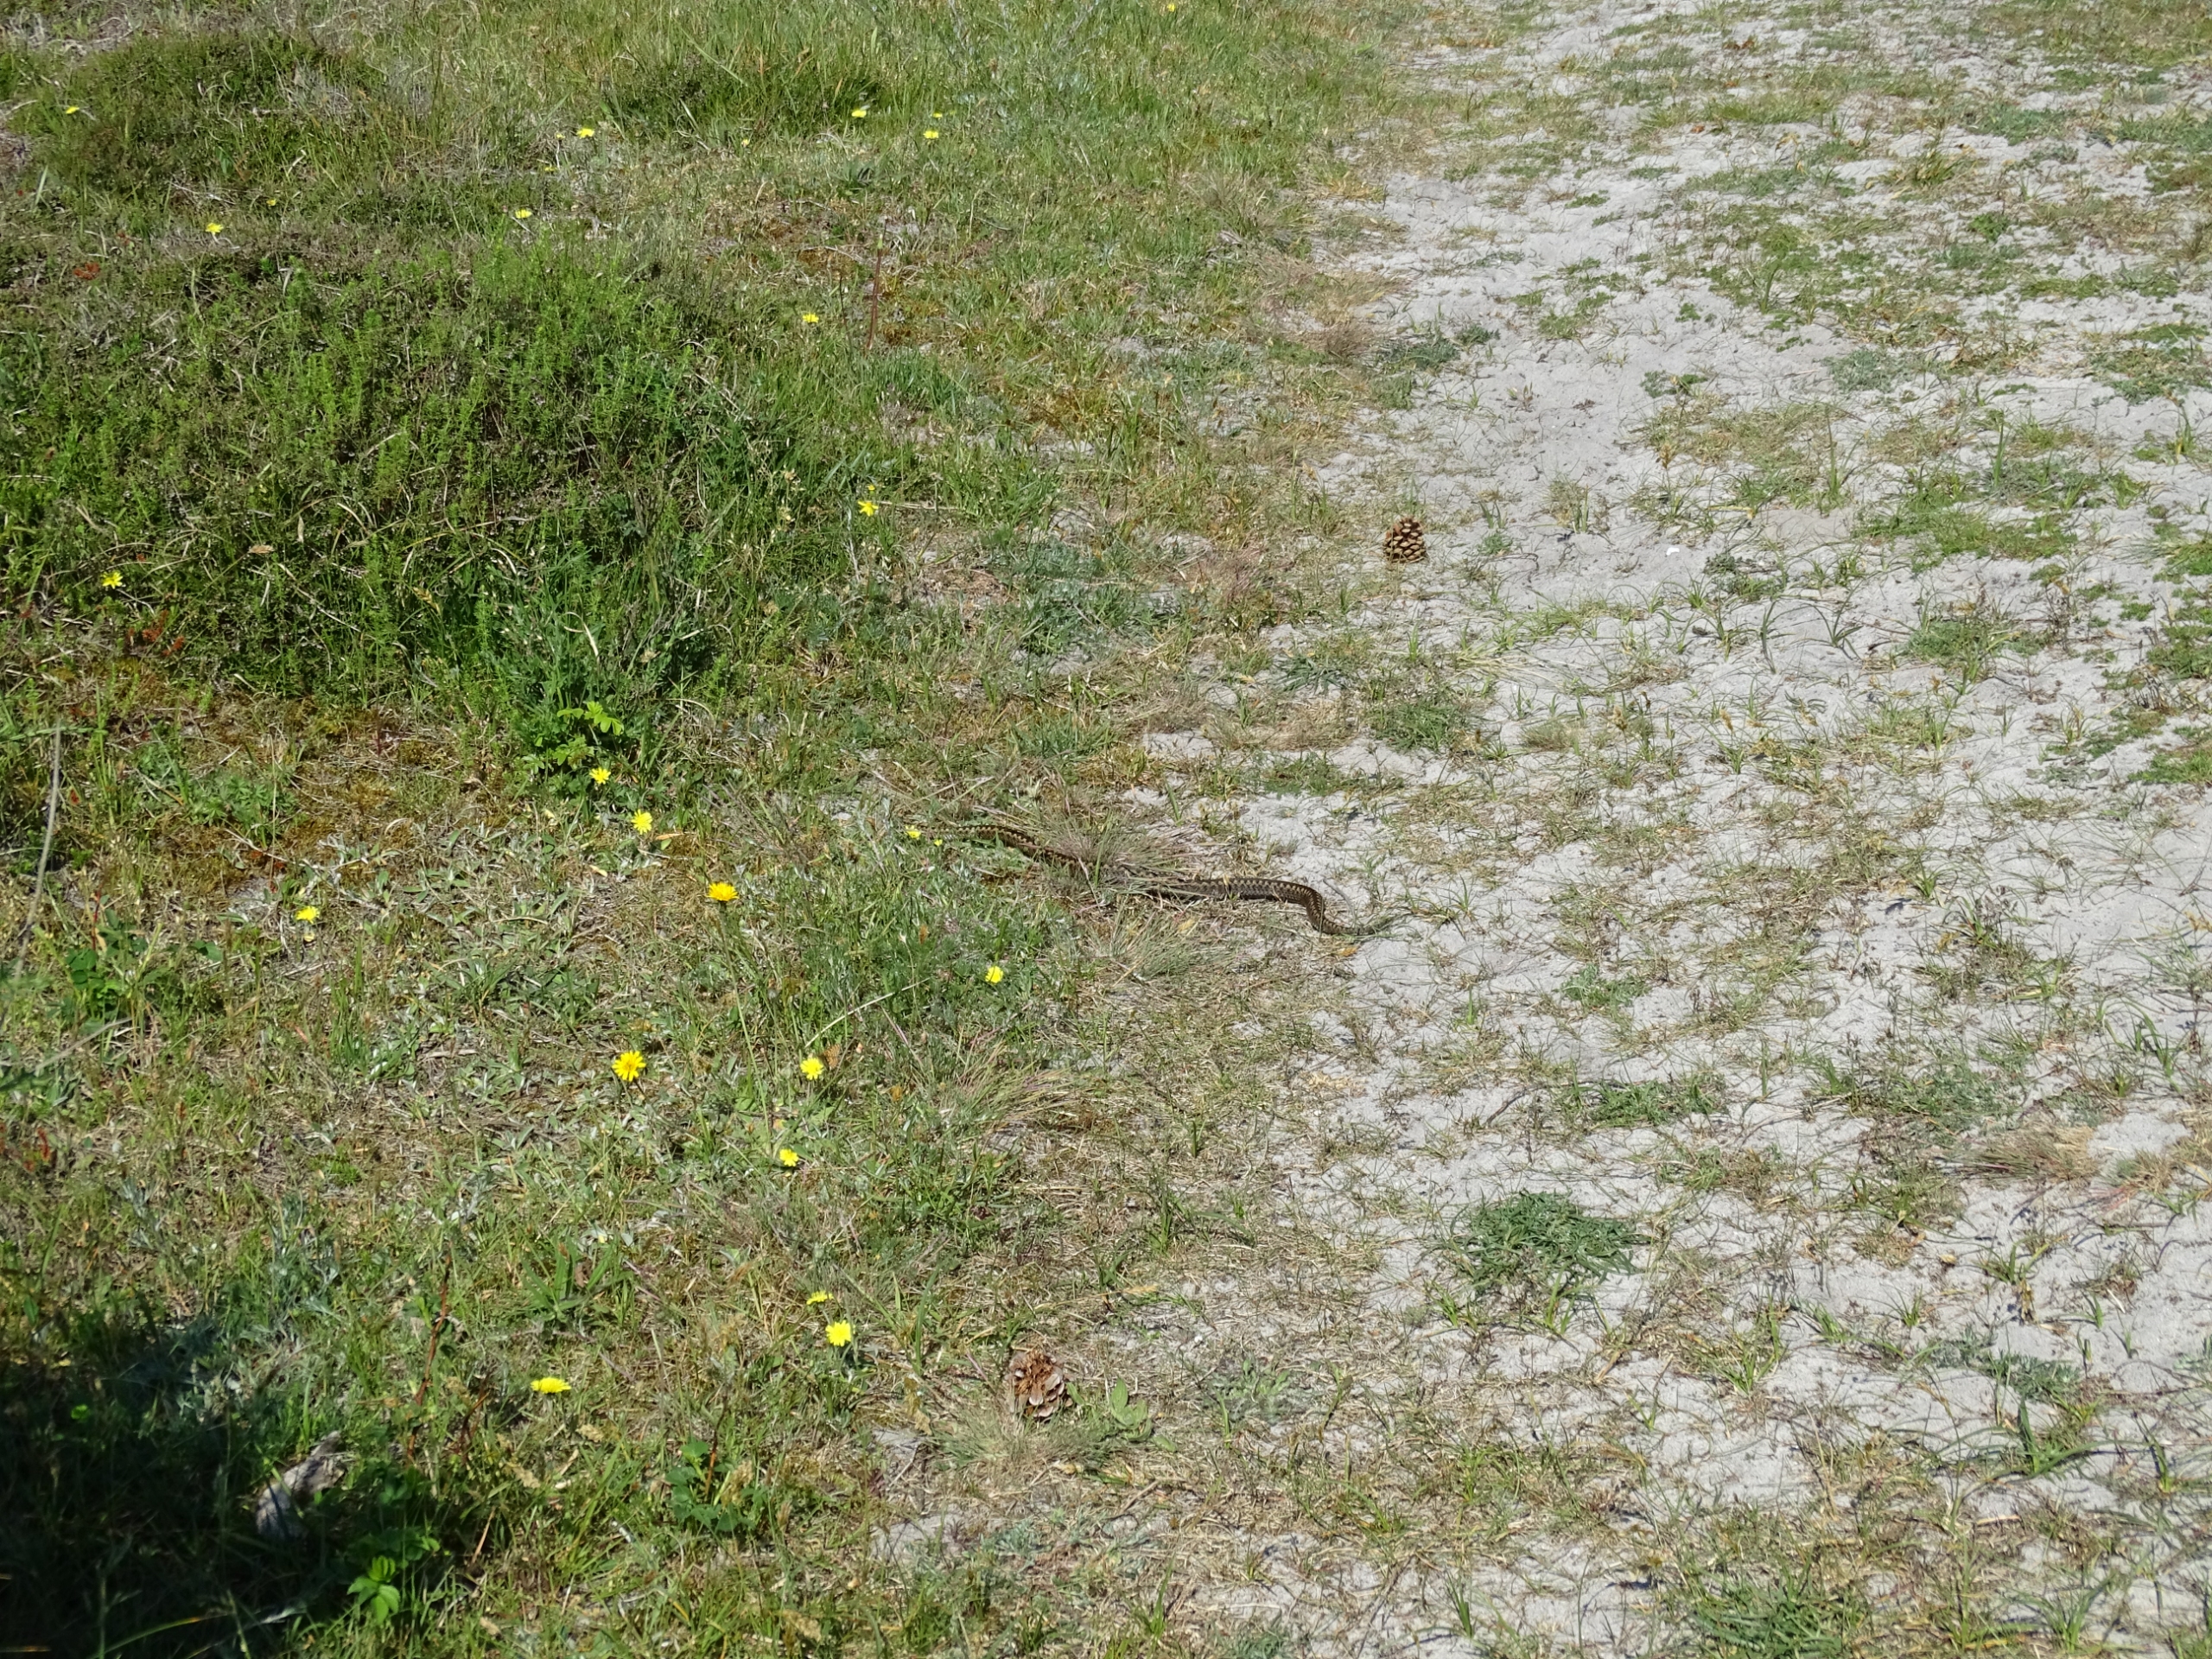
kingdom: Animalia
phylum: Chordata
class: Squamata
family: Viperidae
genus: Vipera
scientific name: Vipera berus
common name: Hugorm
